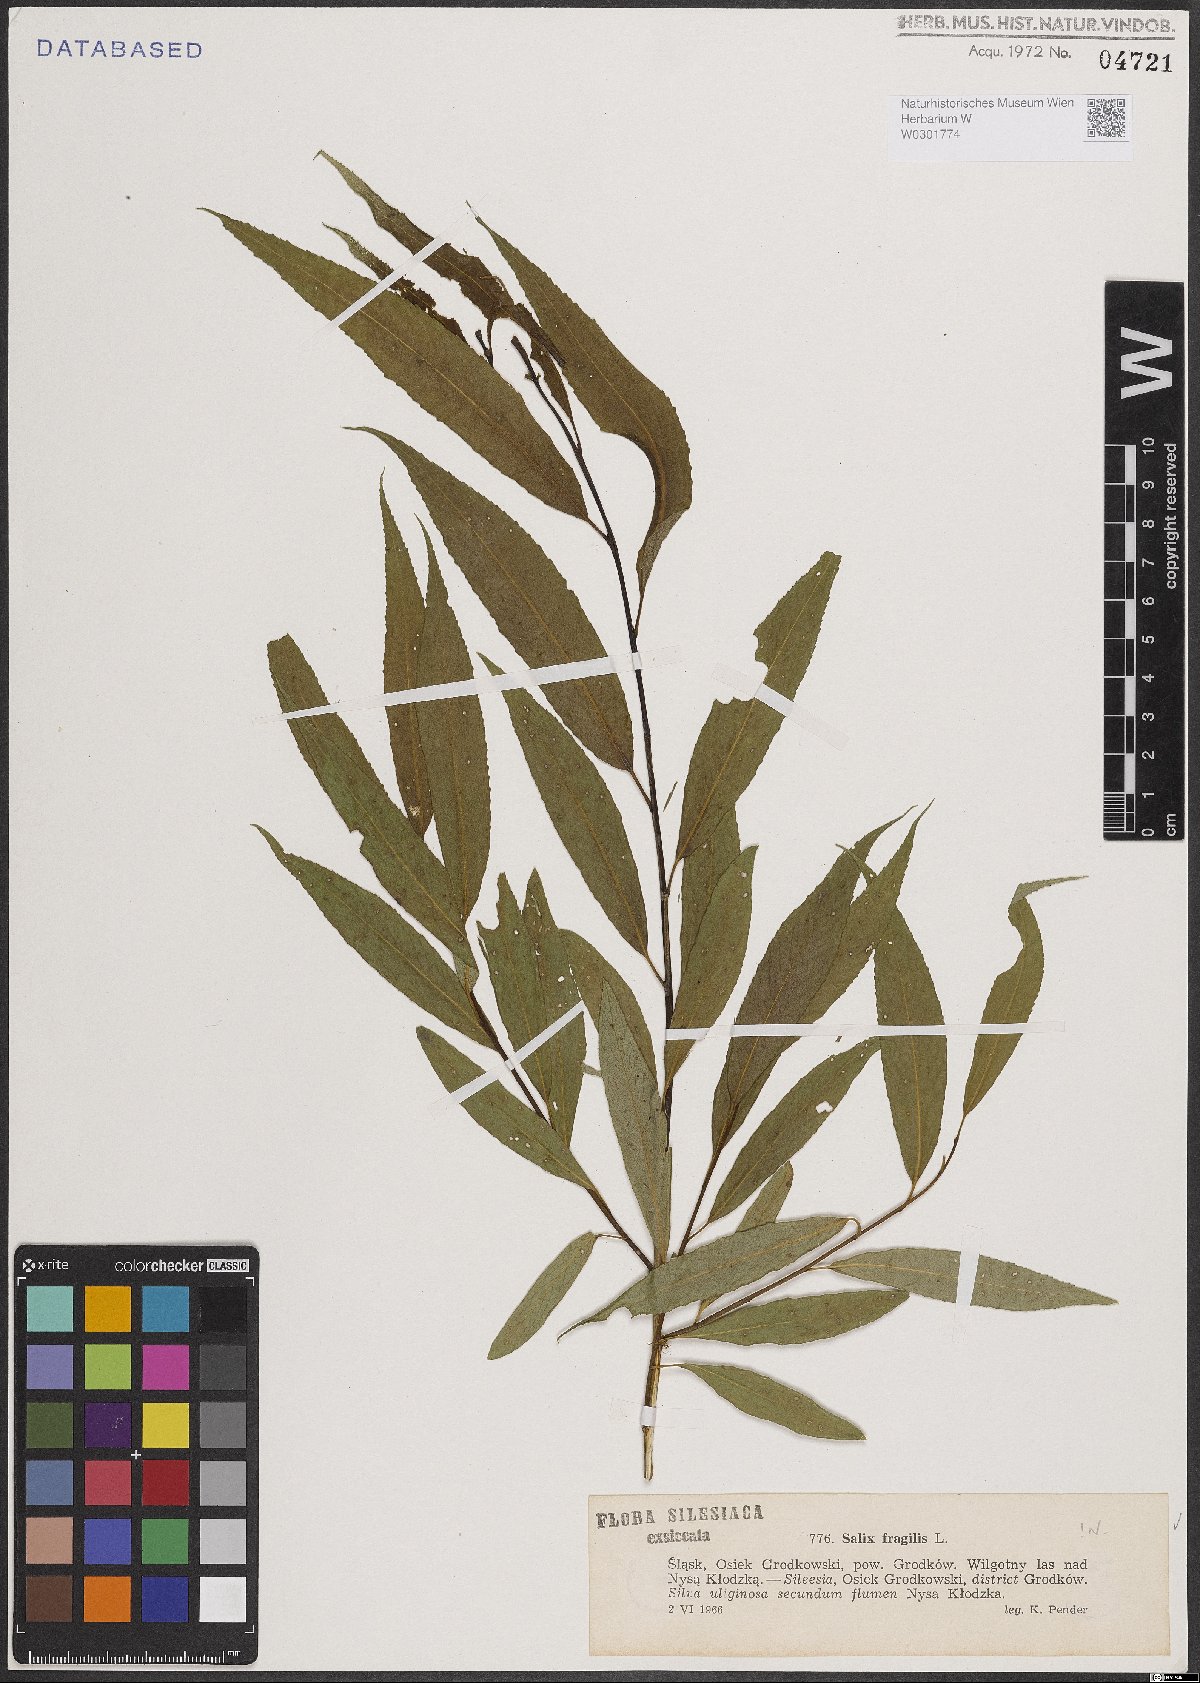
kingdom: Plantae
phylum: Tracheophyta
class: Magnoliopsida
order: Malpighiales
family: Salicaceae
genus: Salix
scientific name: Salix fragilis
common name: Crack willow
